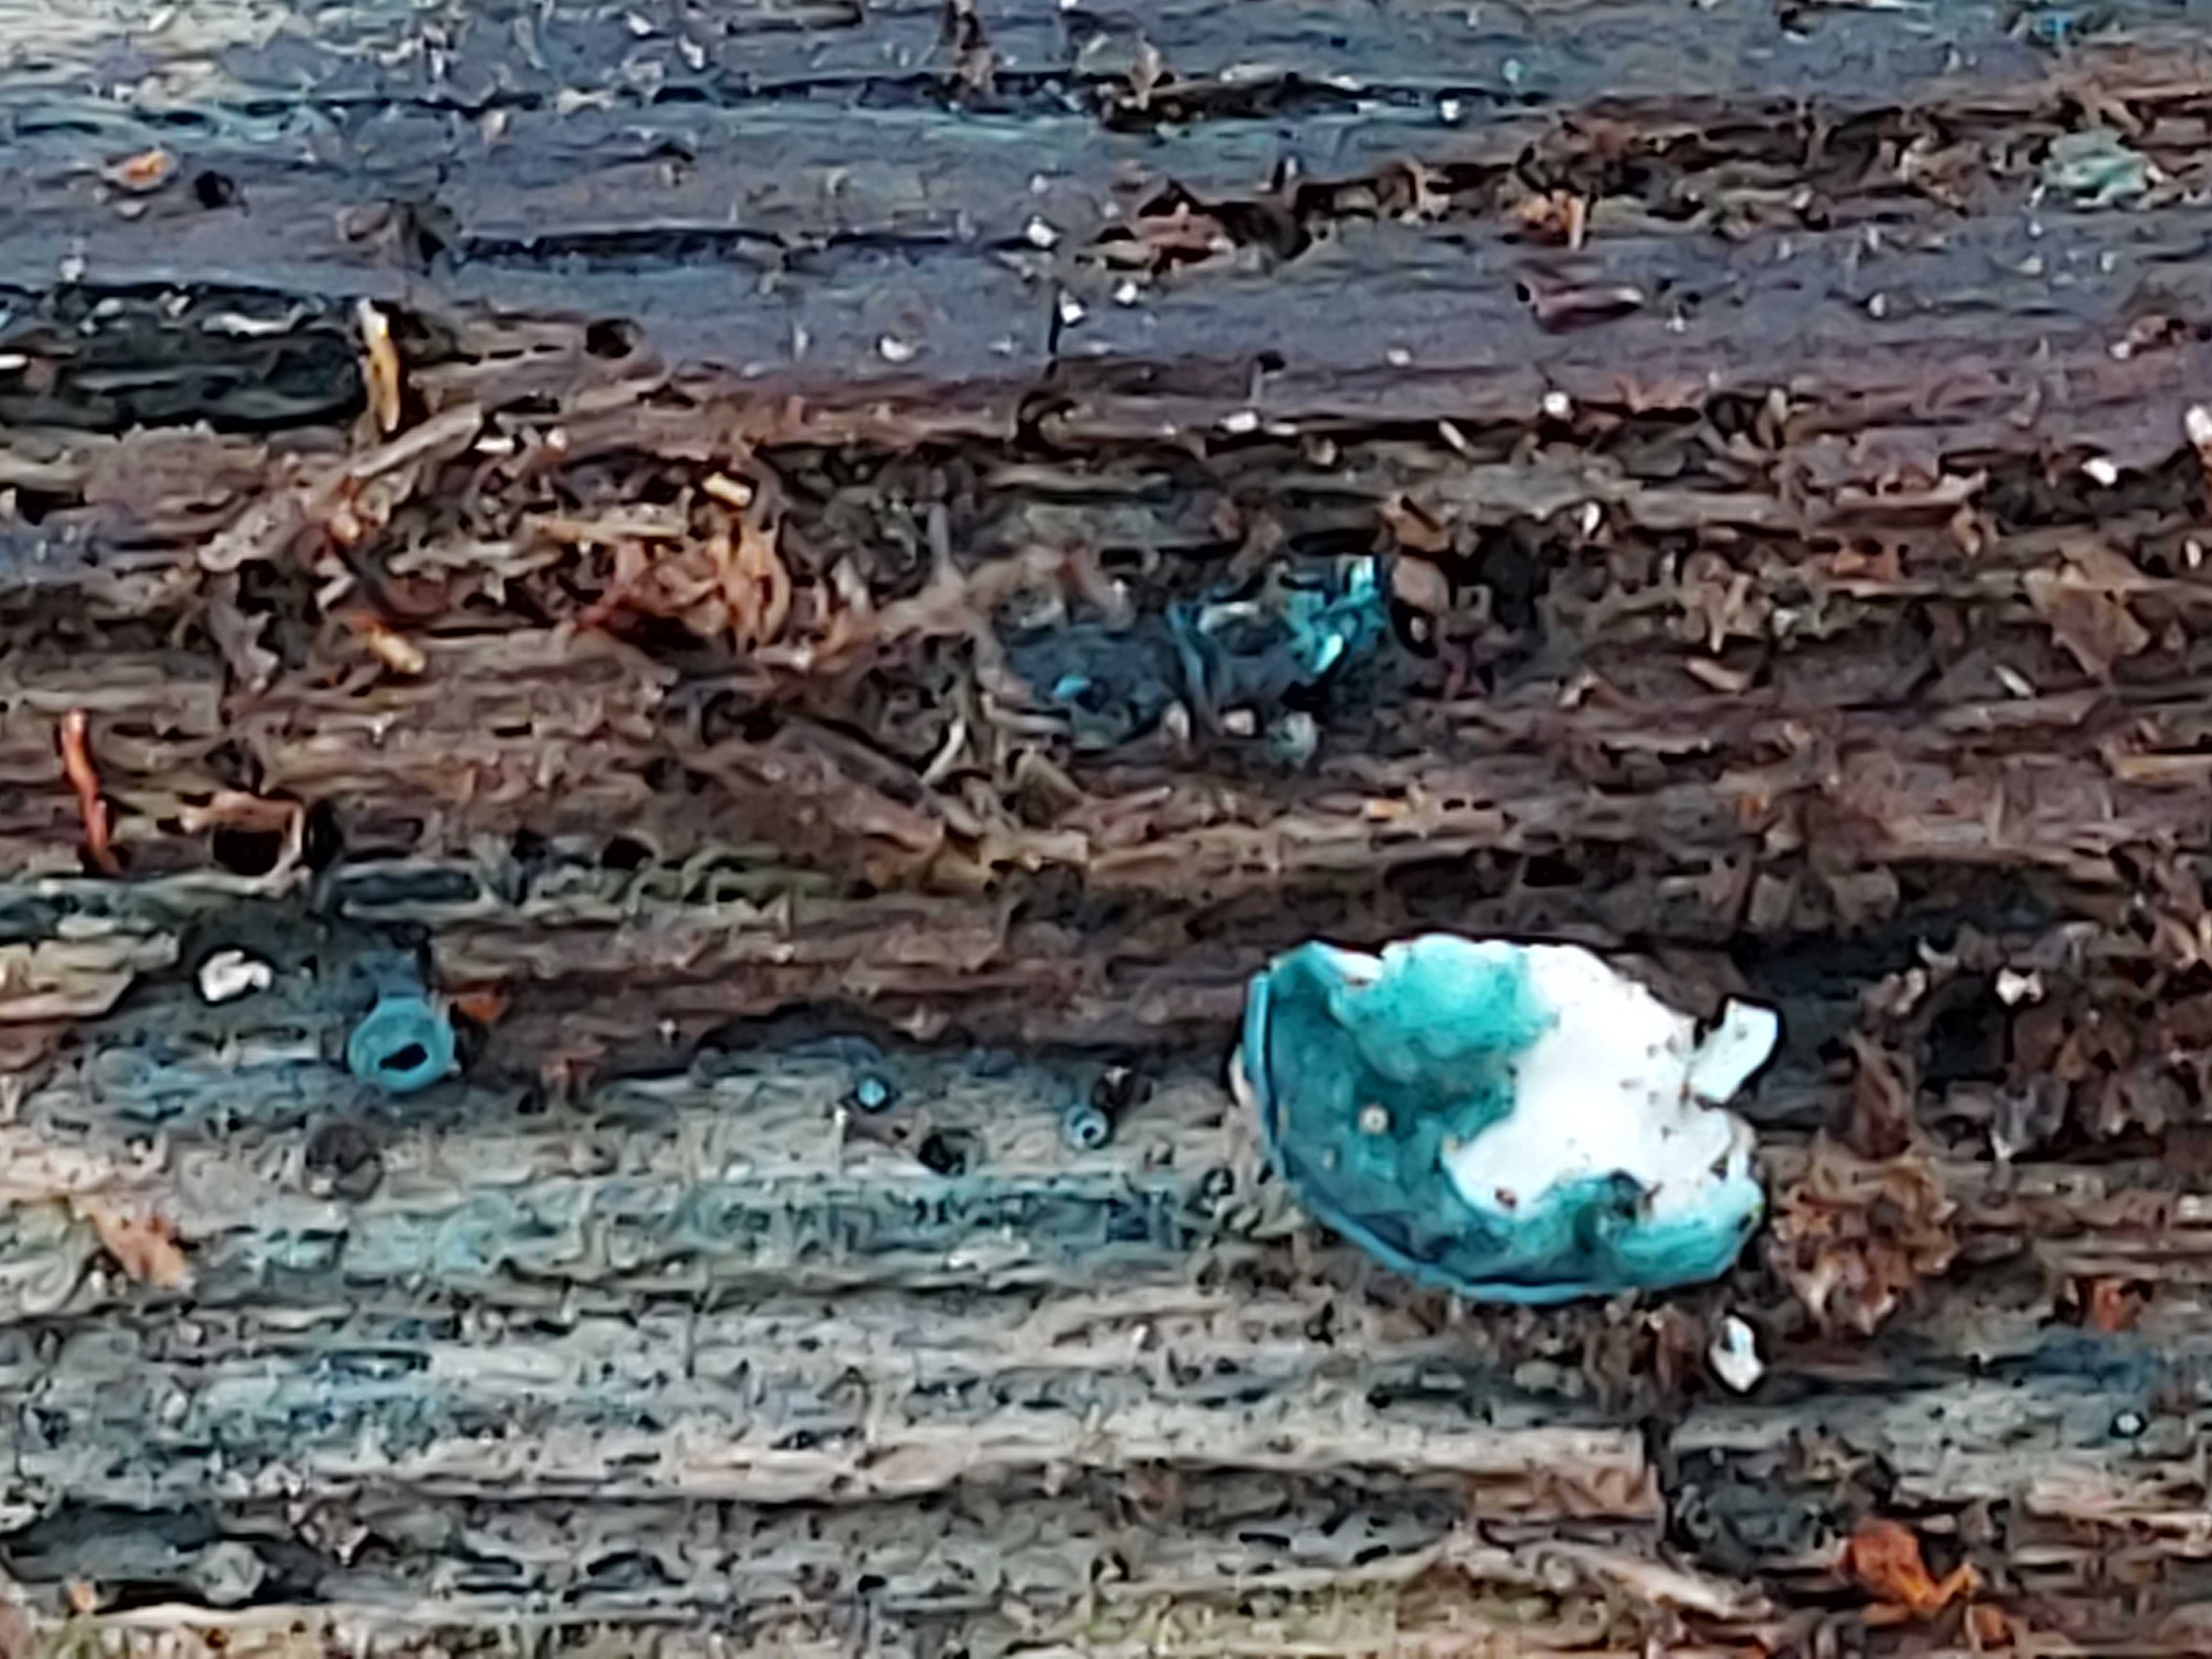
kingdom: Fungi
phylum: Ascomycota
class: Leotiomycetes
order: Helotiales
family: Chlorociboriaceae
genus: Chlorociboria
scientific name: Chlorociboria aeruginascens
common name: almindelig grønskive
